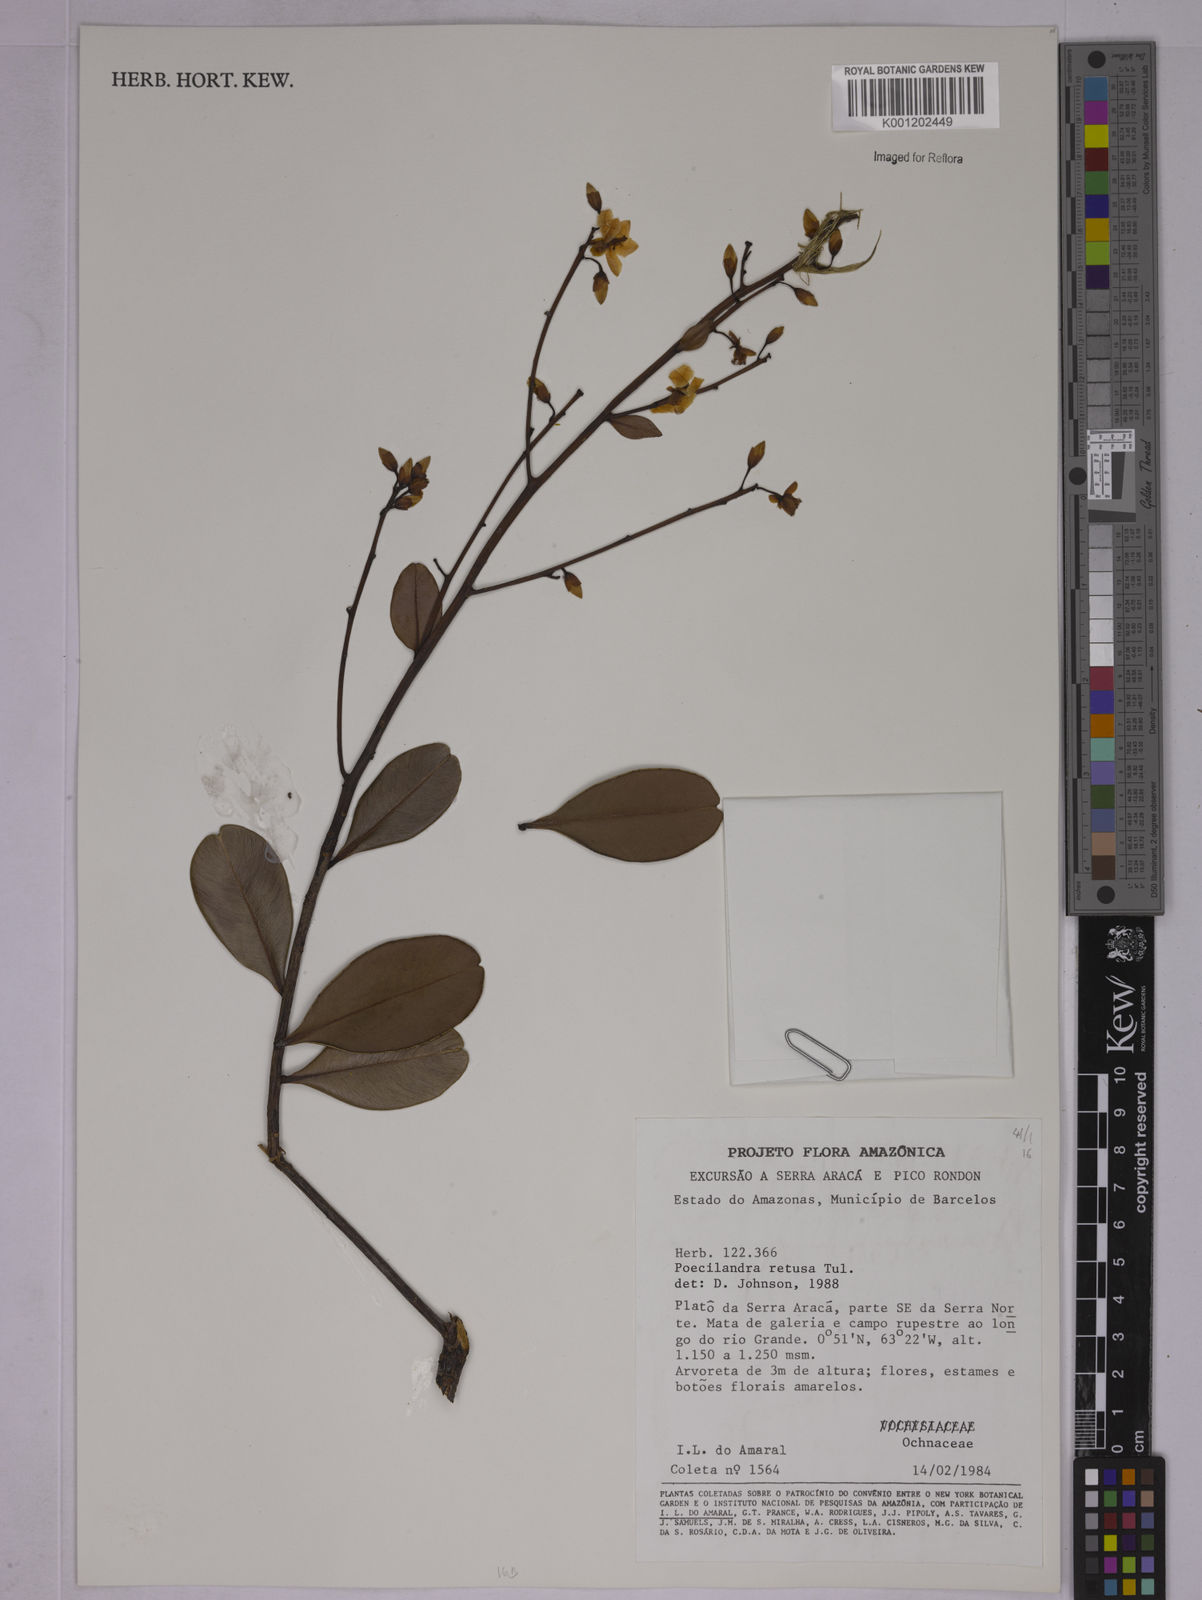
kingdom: Plantae
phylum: Tracheophyta
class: Magnoliopsida
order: Malpighiales
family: Ochnaceae
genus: Poecilandra
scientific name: Poecilandra retusa
